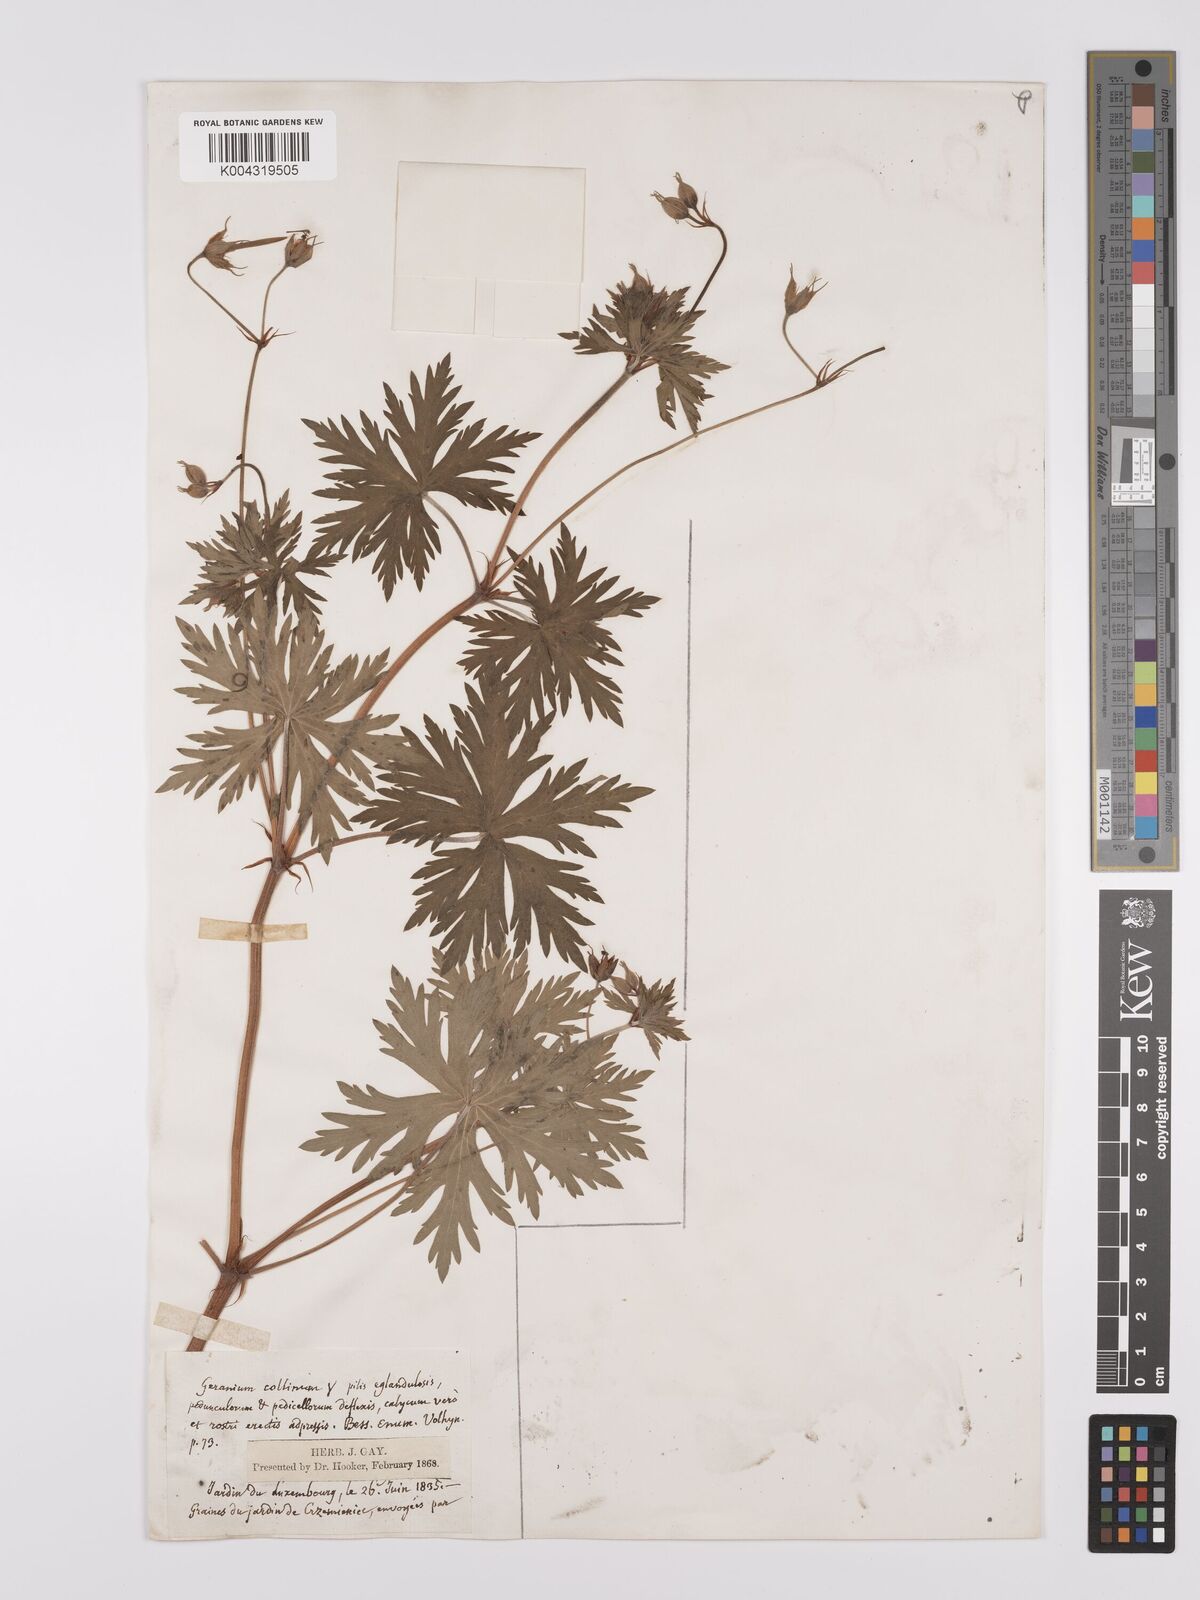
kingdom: Plantae
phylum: Tracheophyta
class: Magnoliopsida
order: Geraniales
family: Geraniaceae
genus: Geranium
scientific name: Geranium collinum
